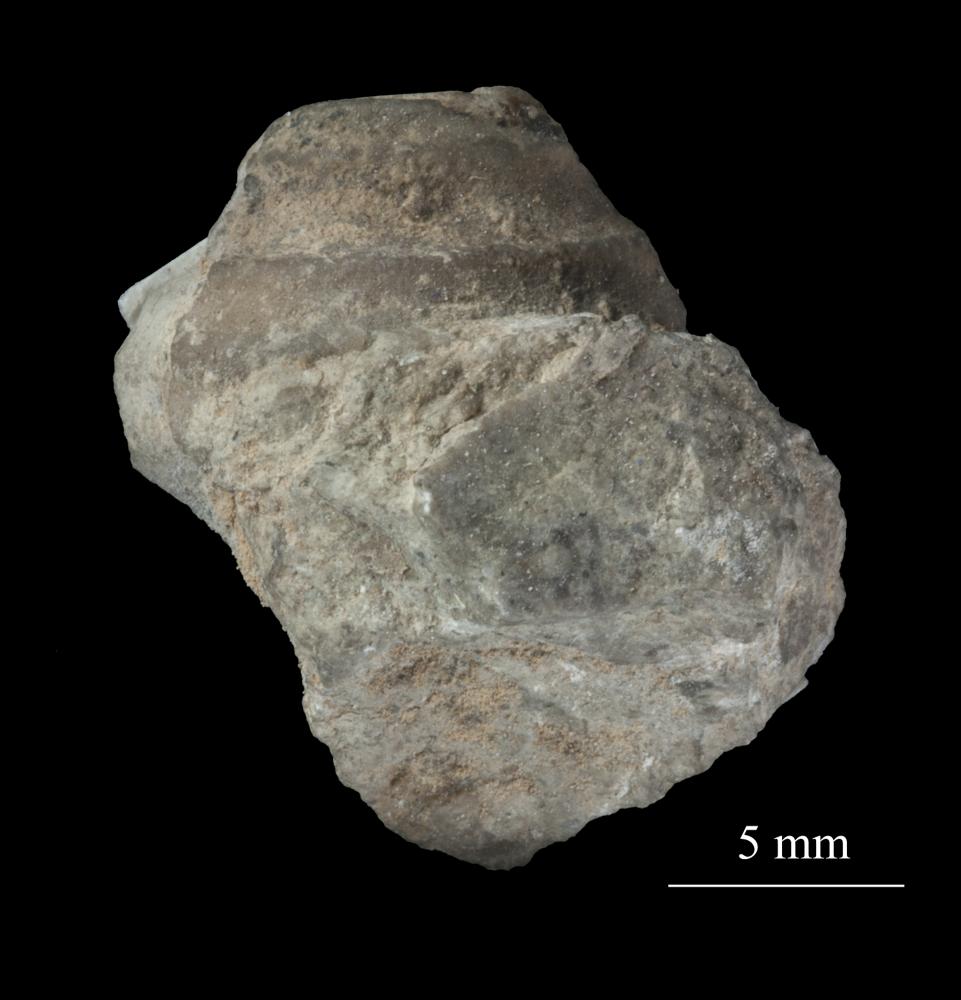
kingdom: Animalia
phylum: Mollusca
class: Gastropoda
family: Lophospiridae
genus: Loxoplocus
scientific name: Loxoplocus Turbo silurica
